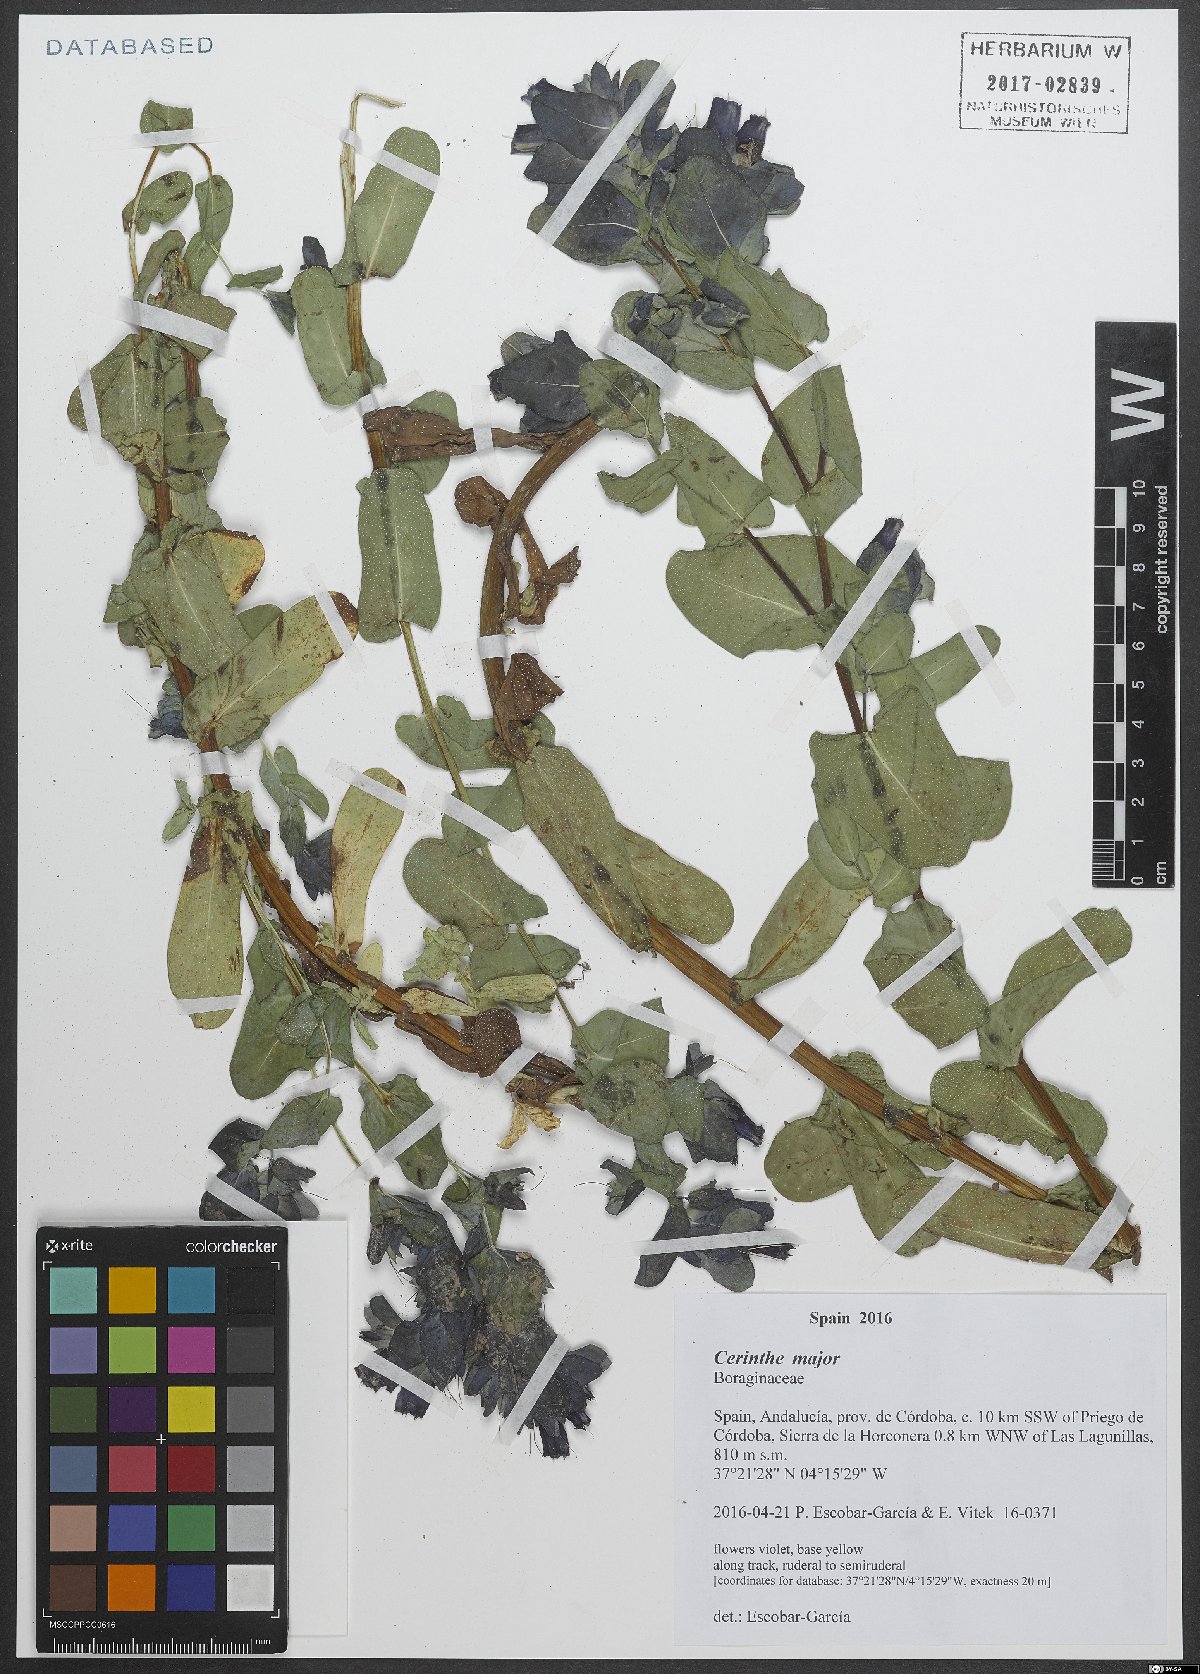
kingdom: Plantae
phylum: Tracheophyta
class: Magnoliopsida
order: Boraginales
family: Boraginaceae
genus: Cerinthe
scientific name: Cerinthe major
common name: Greater honeywort
